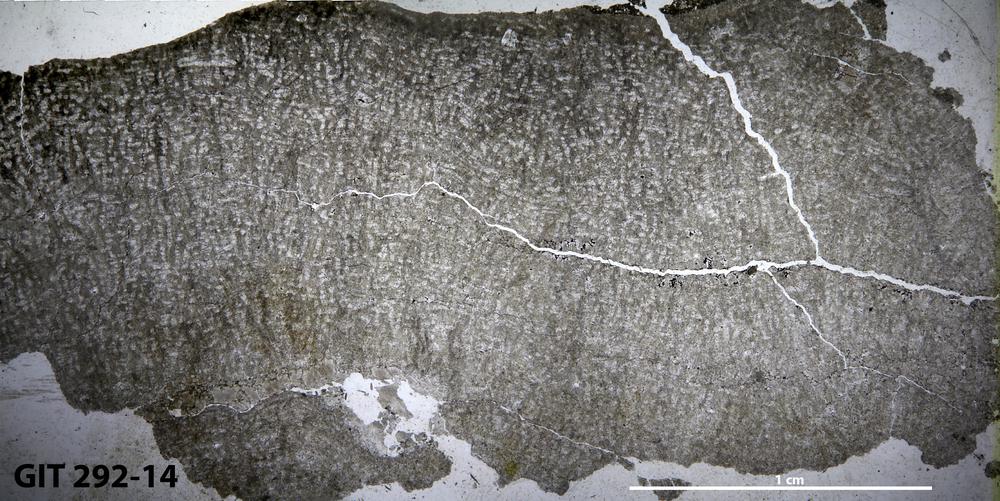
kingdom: Animalia
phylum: Porifera
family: Syringostromellidae
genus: Syringostromella
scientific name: Syringostromella
